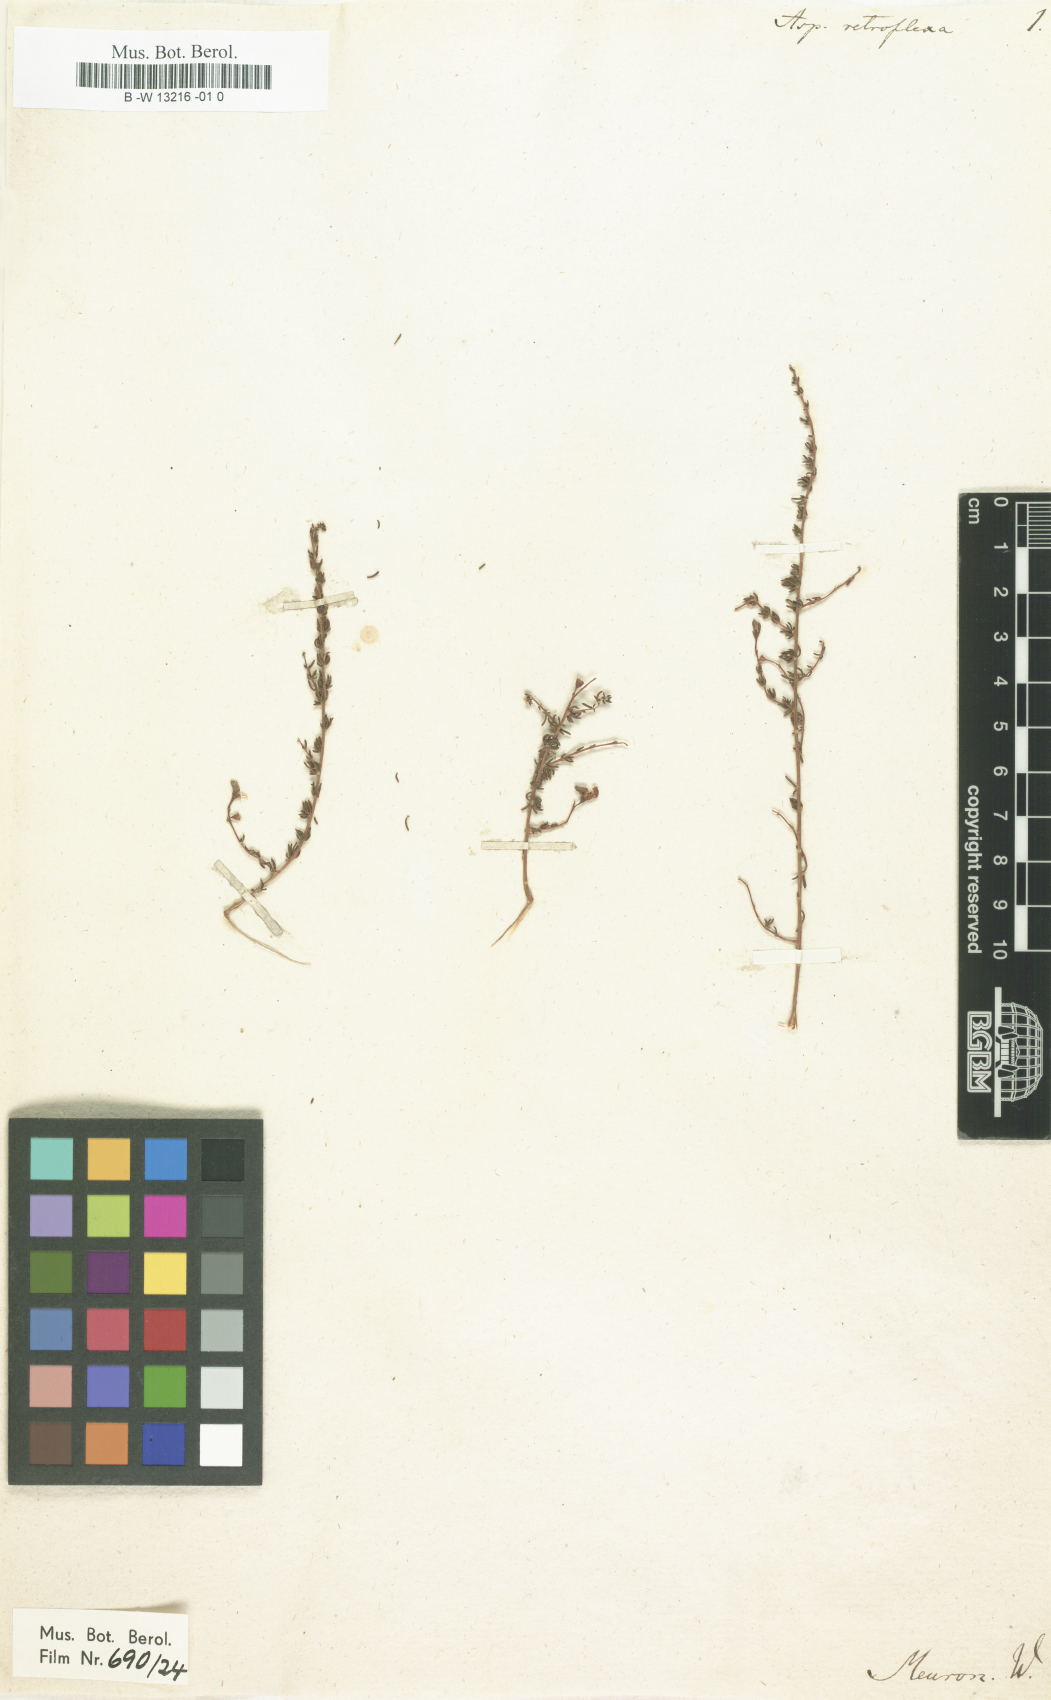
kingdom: Plantae
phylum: Tracheophyta
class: Magnoliopsida
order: Fabales
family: Fabaceae
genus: Aspalathus
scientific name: Aspalathus retroflexa
